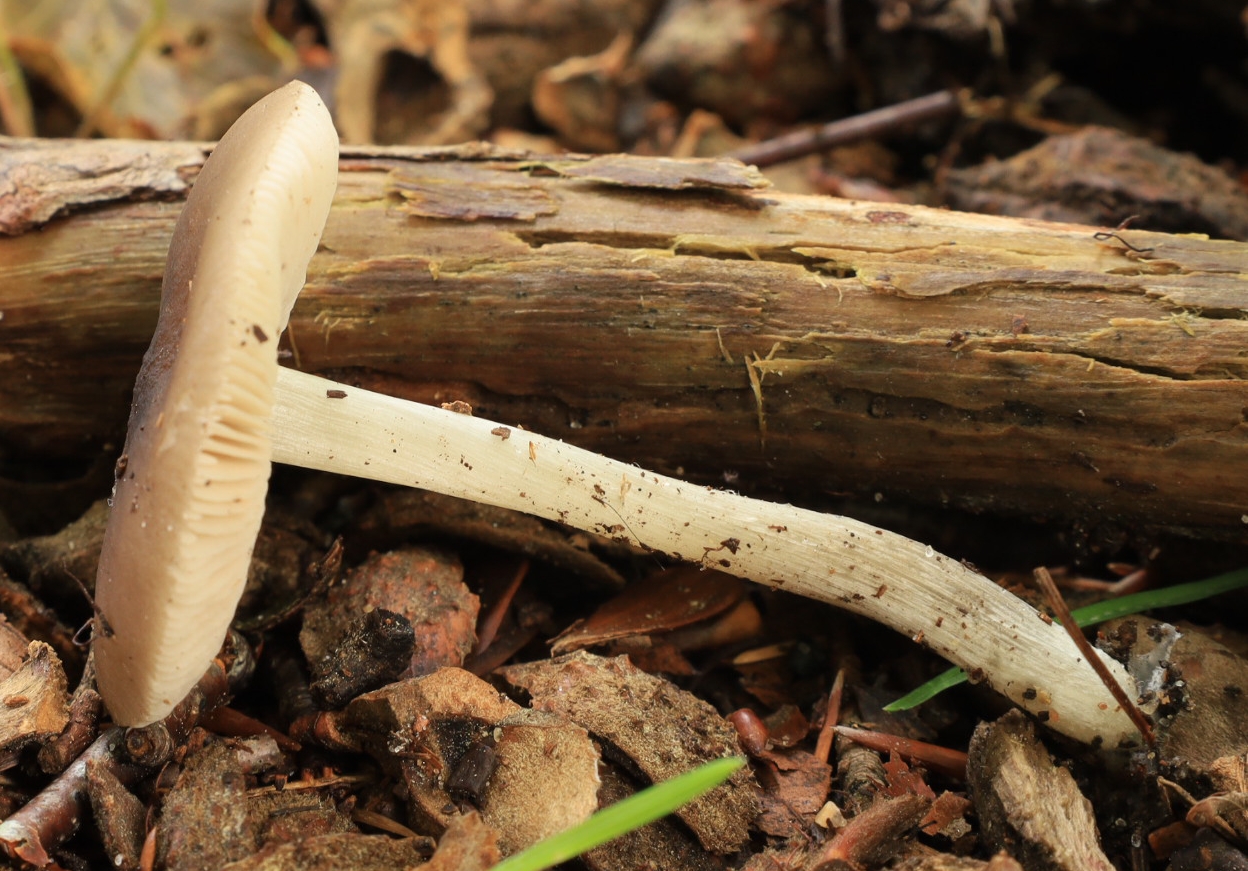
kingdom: Fungi
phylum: Basidiomycota
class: Agaricomycetes
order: Agaricales
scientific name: Agaricales
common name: champignonordenen
